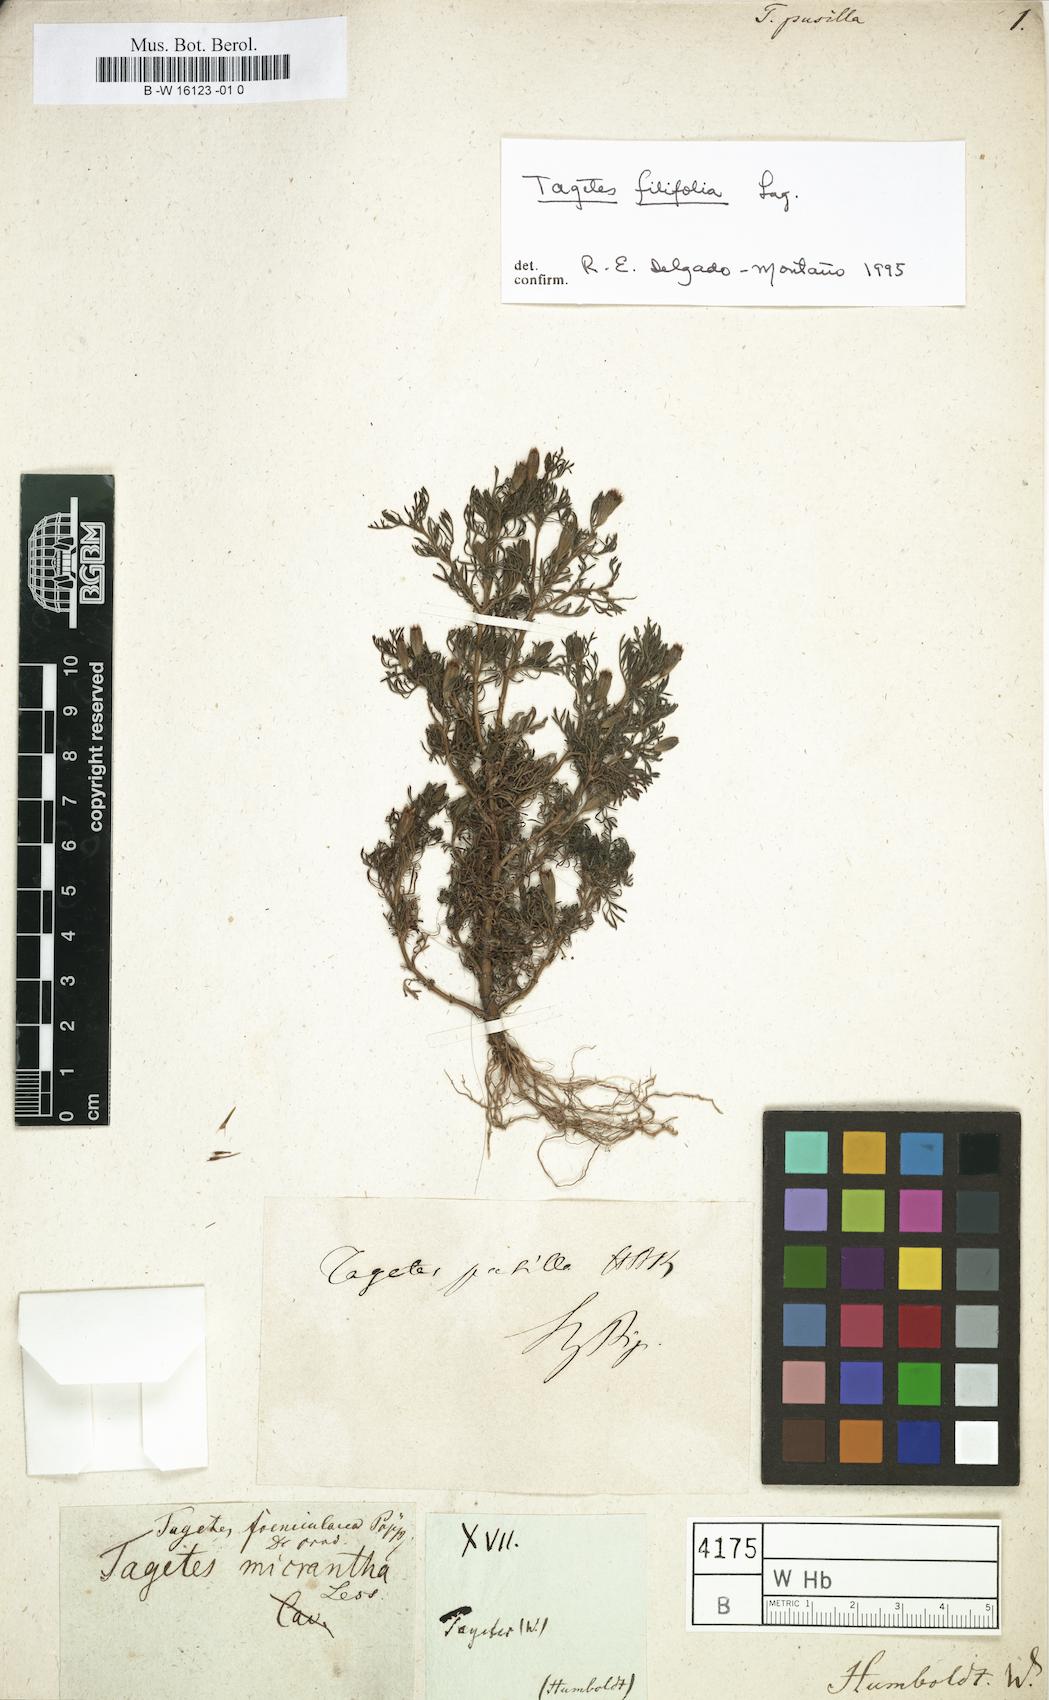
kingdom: Plantae
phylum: Tracheophyta
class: Magnoliopsida
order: Asterales
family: Asteraceae
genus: Tagetes
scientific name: Tagetes filifolia
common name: Lesser marigold
